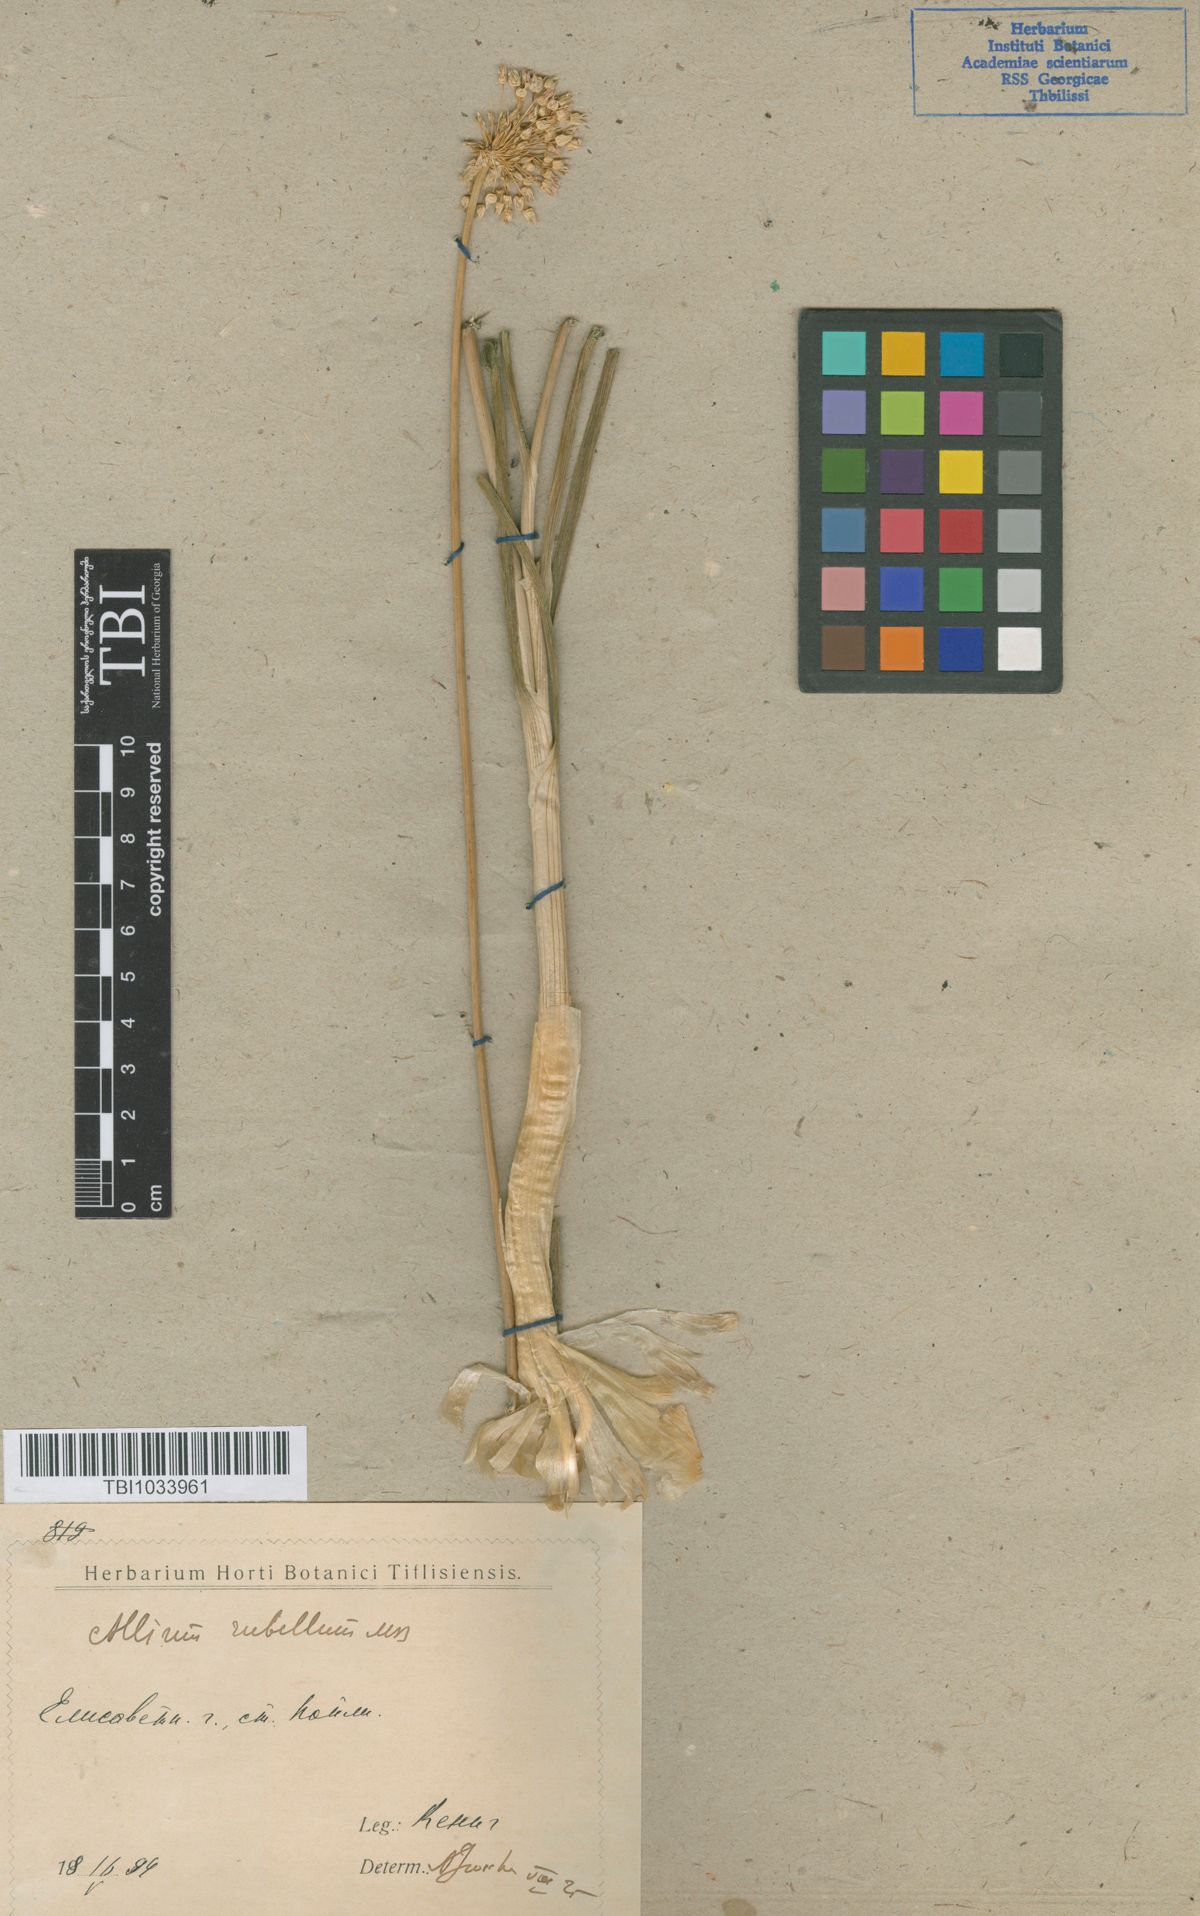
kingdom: Plantae
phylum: Tracheophyta
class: Liliopsida
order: Asparagales
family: Amaryllidaceae
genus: Allium
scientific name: Allium rubellum
